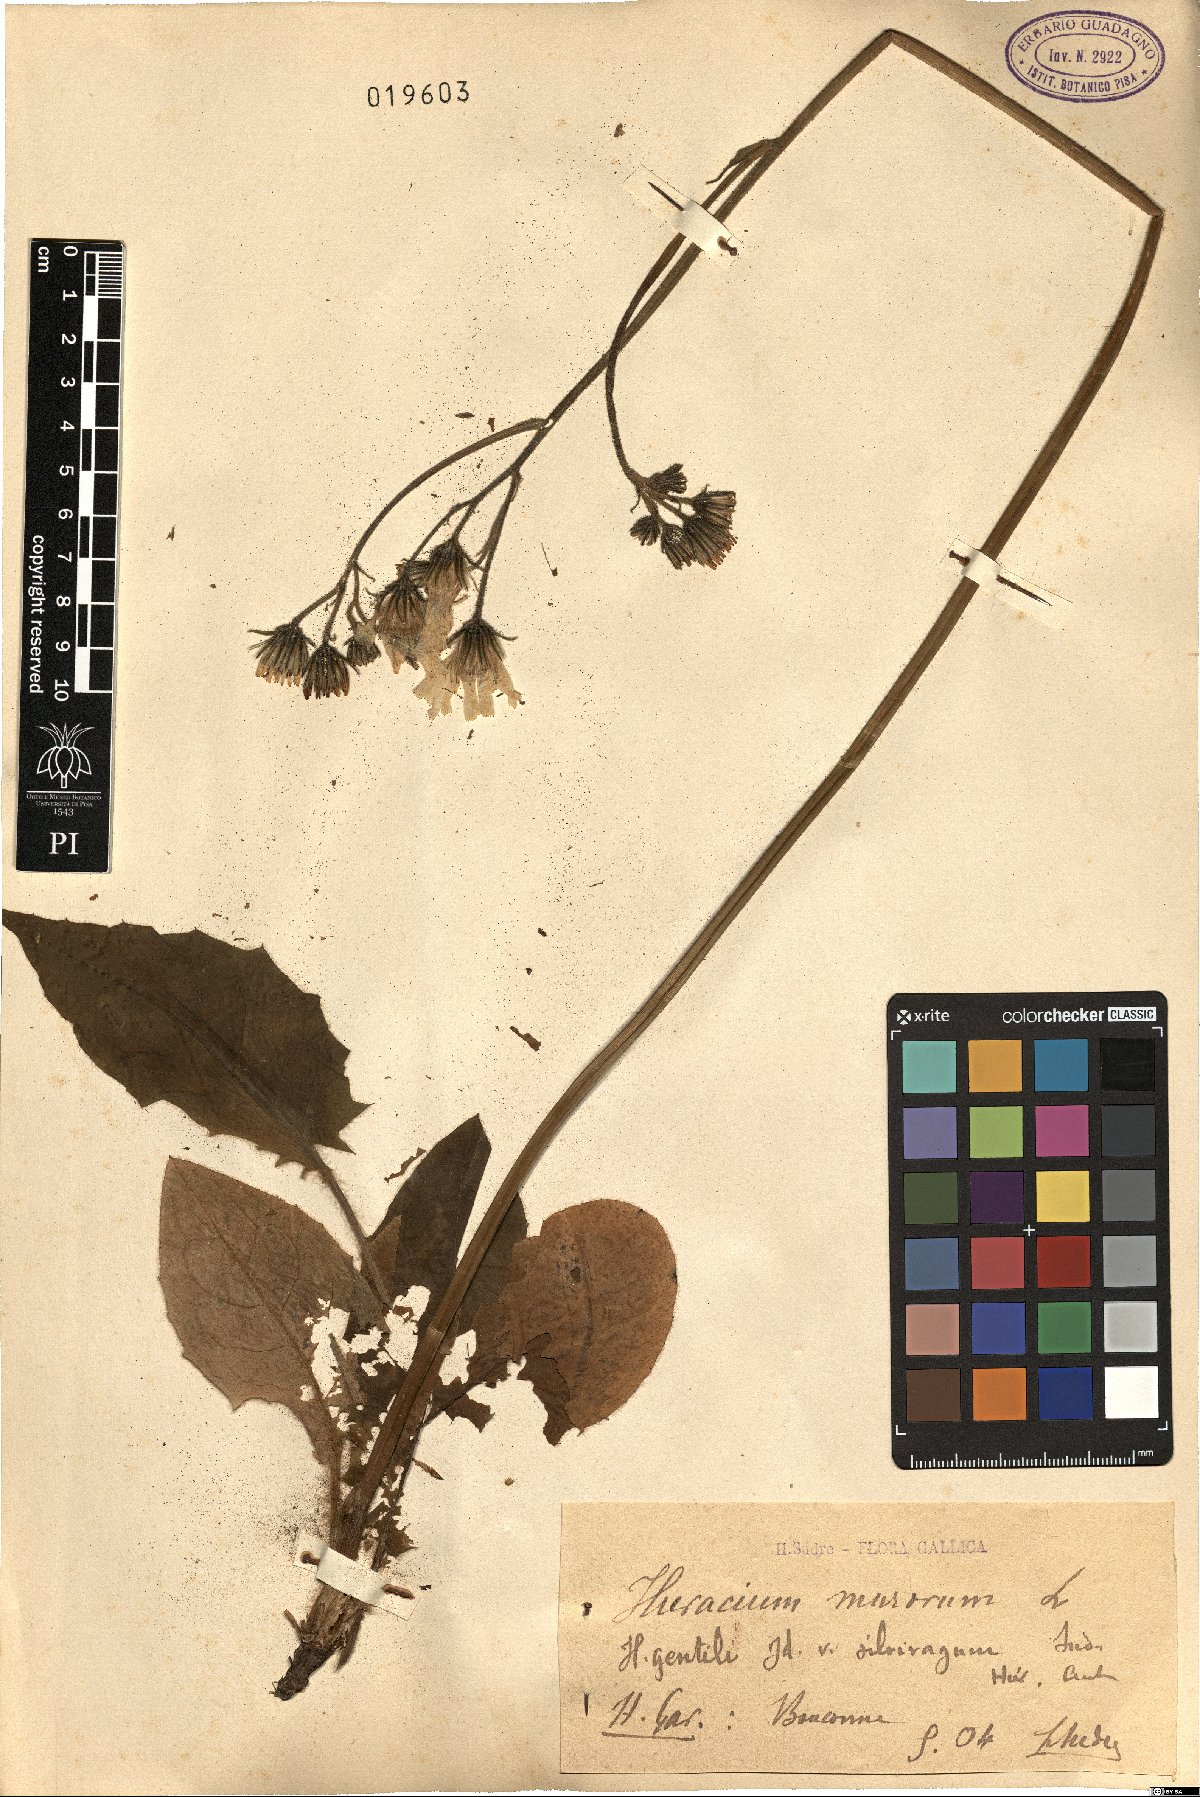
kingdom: Plantae
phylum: Tracheophyta
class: Magnoliopsida
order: Asterales
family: Asteraceae
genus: Hieracium
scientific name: Hieracium murorum
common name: Wall hawkweed
